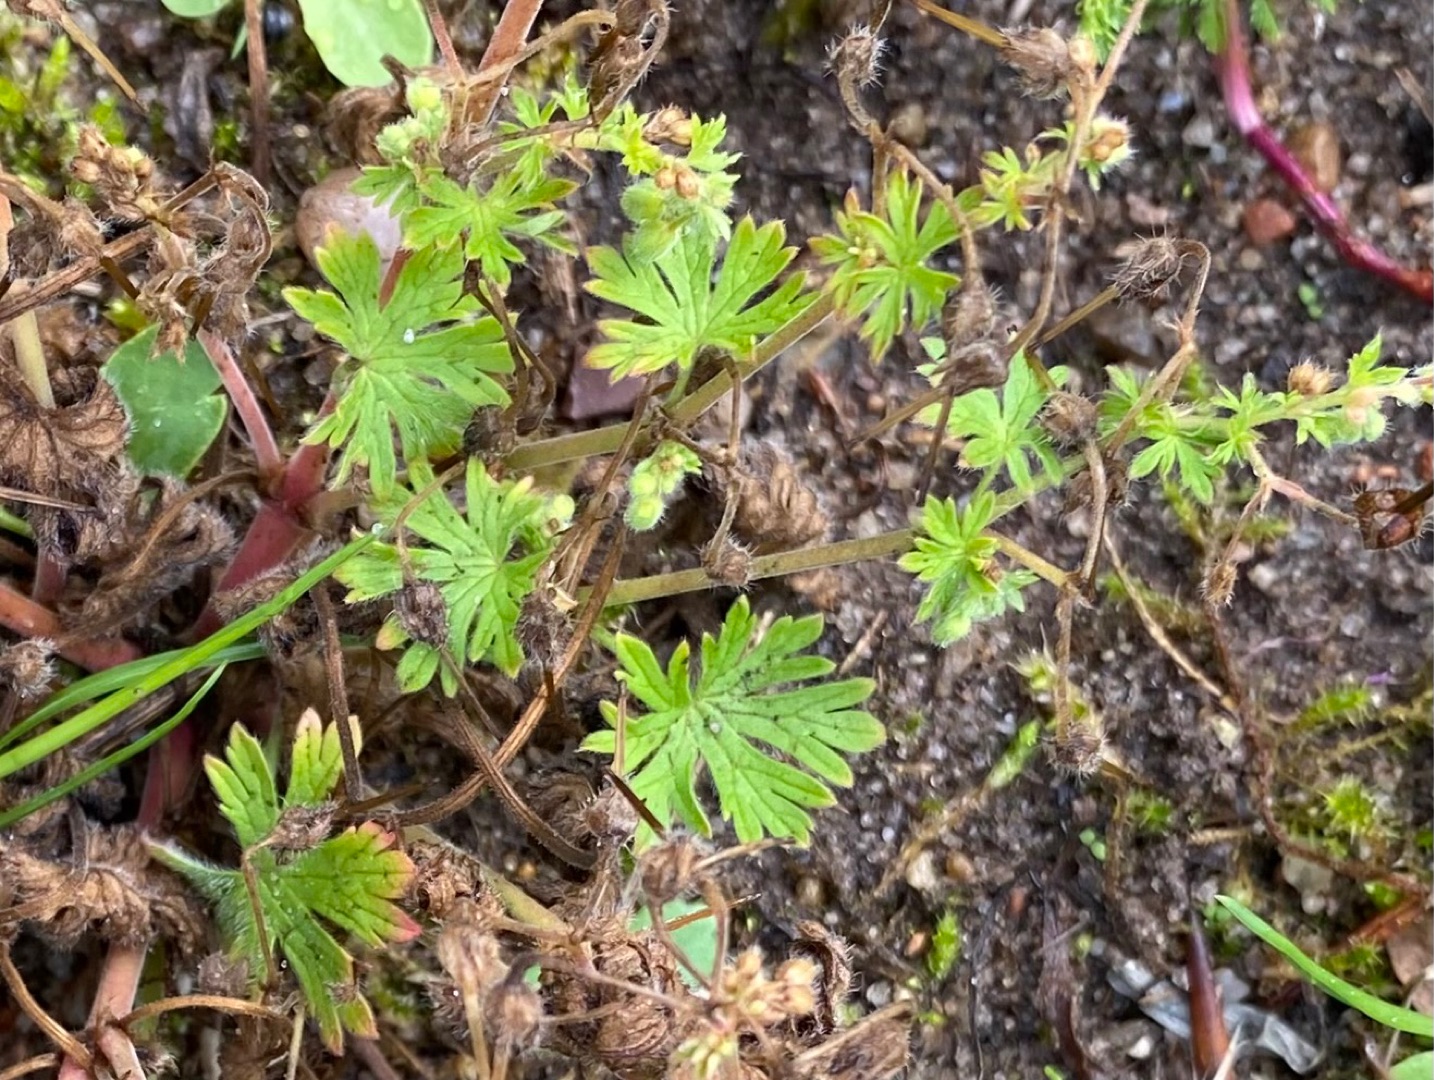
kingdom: Plantae
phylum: Tracheophyta
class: Magnoliopsida
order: Geraniales
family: Geraniaceae
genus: Geranium
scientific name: Geranium pusillum
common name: Liden storkenæb
